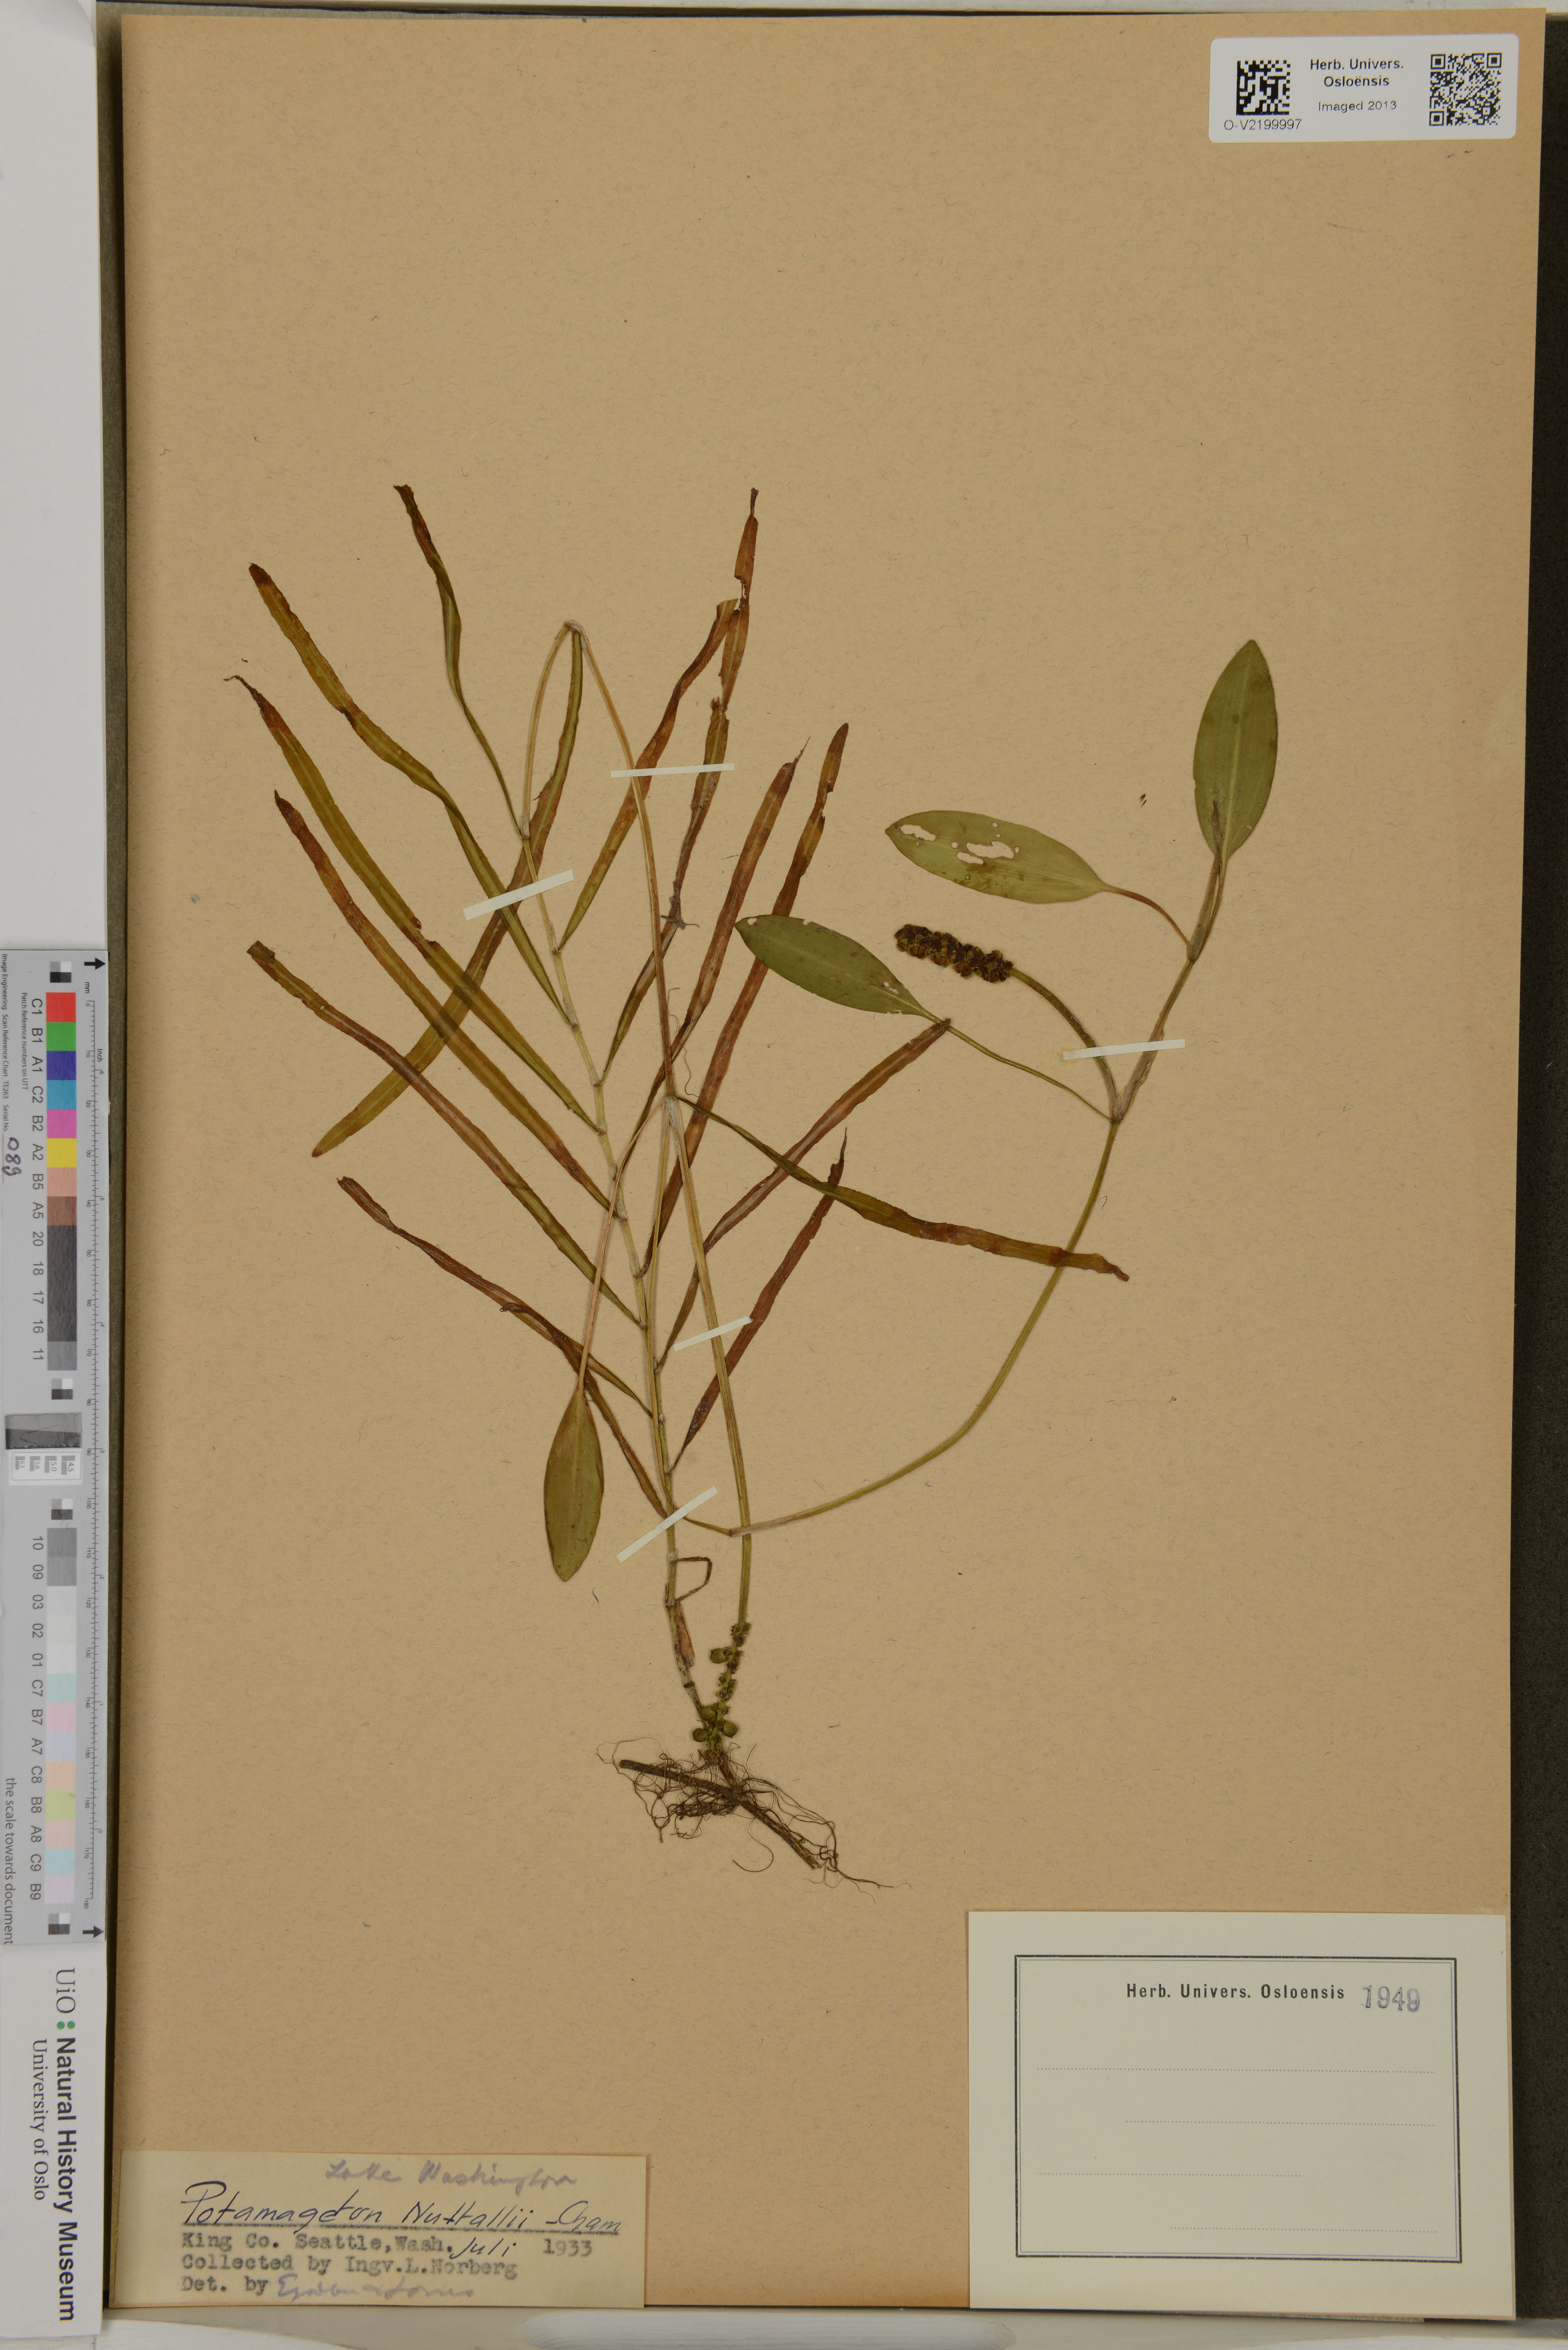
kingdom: Plantae
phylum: Tracheophyta
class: Liliopsida
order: Alismatales
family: Potamogetonaceae
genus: Potamogeton
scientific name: Potamogeton epihydrus
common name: American pondweed
